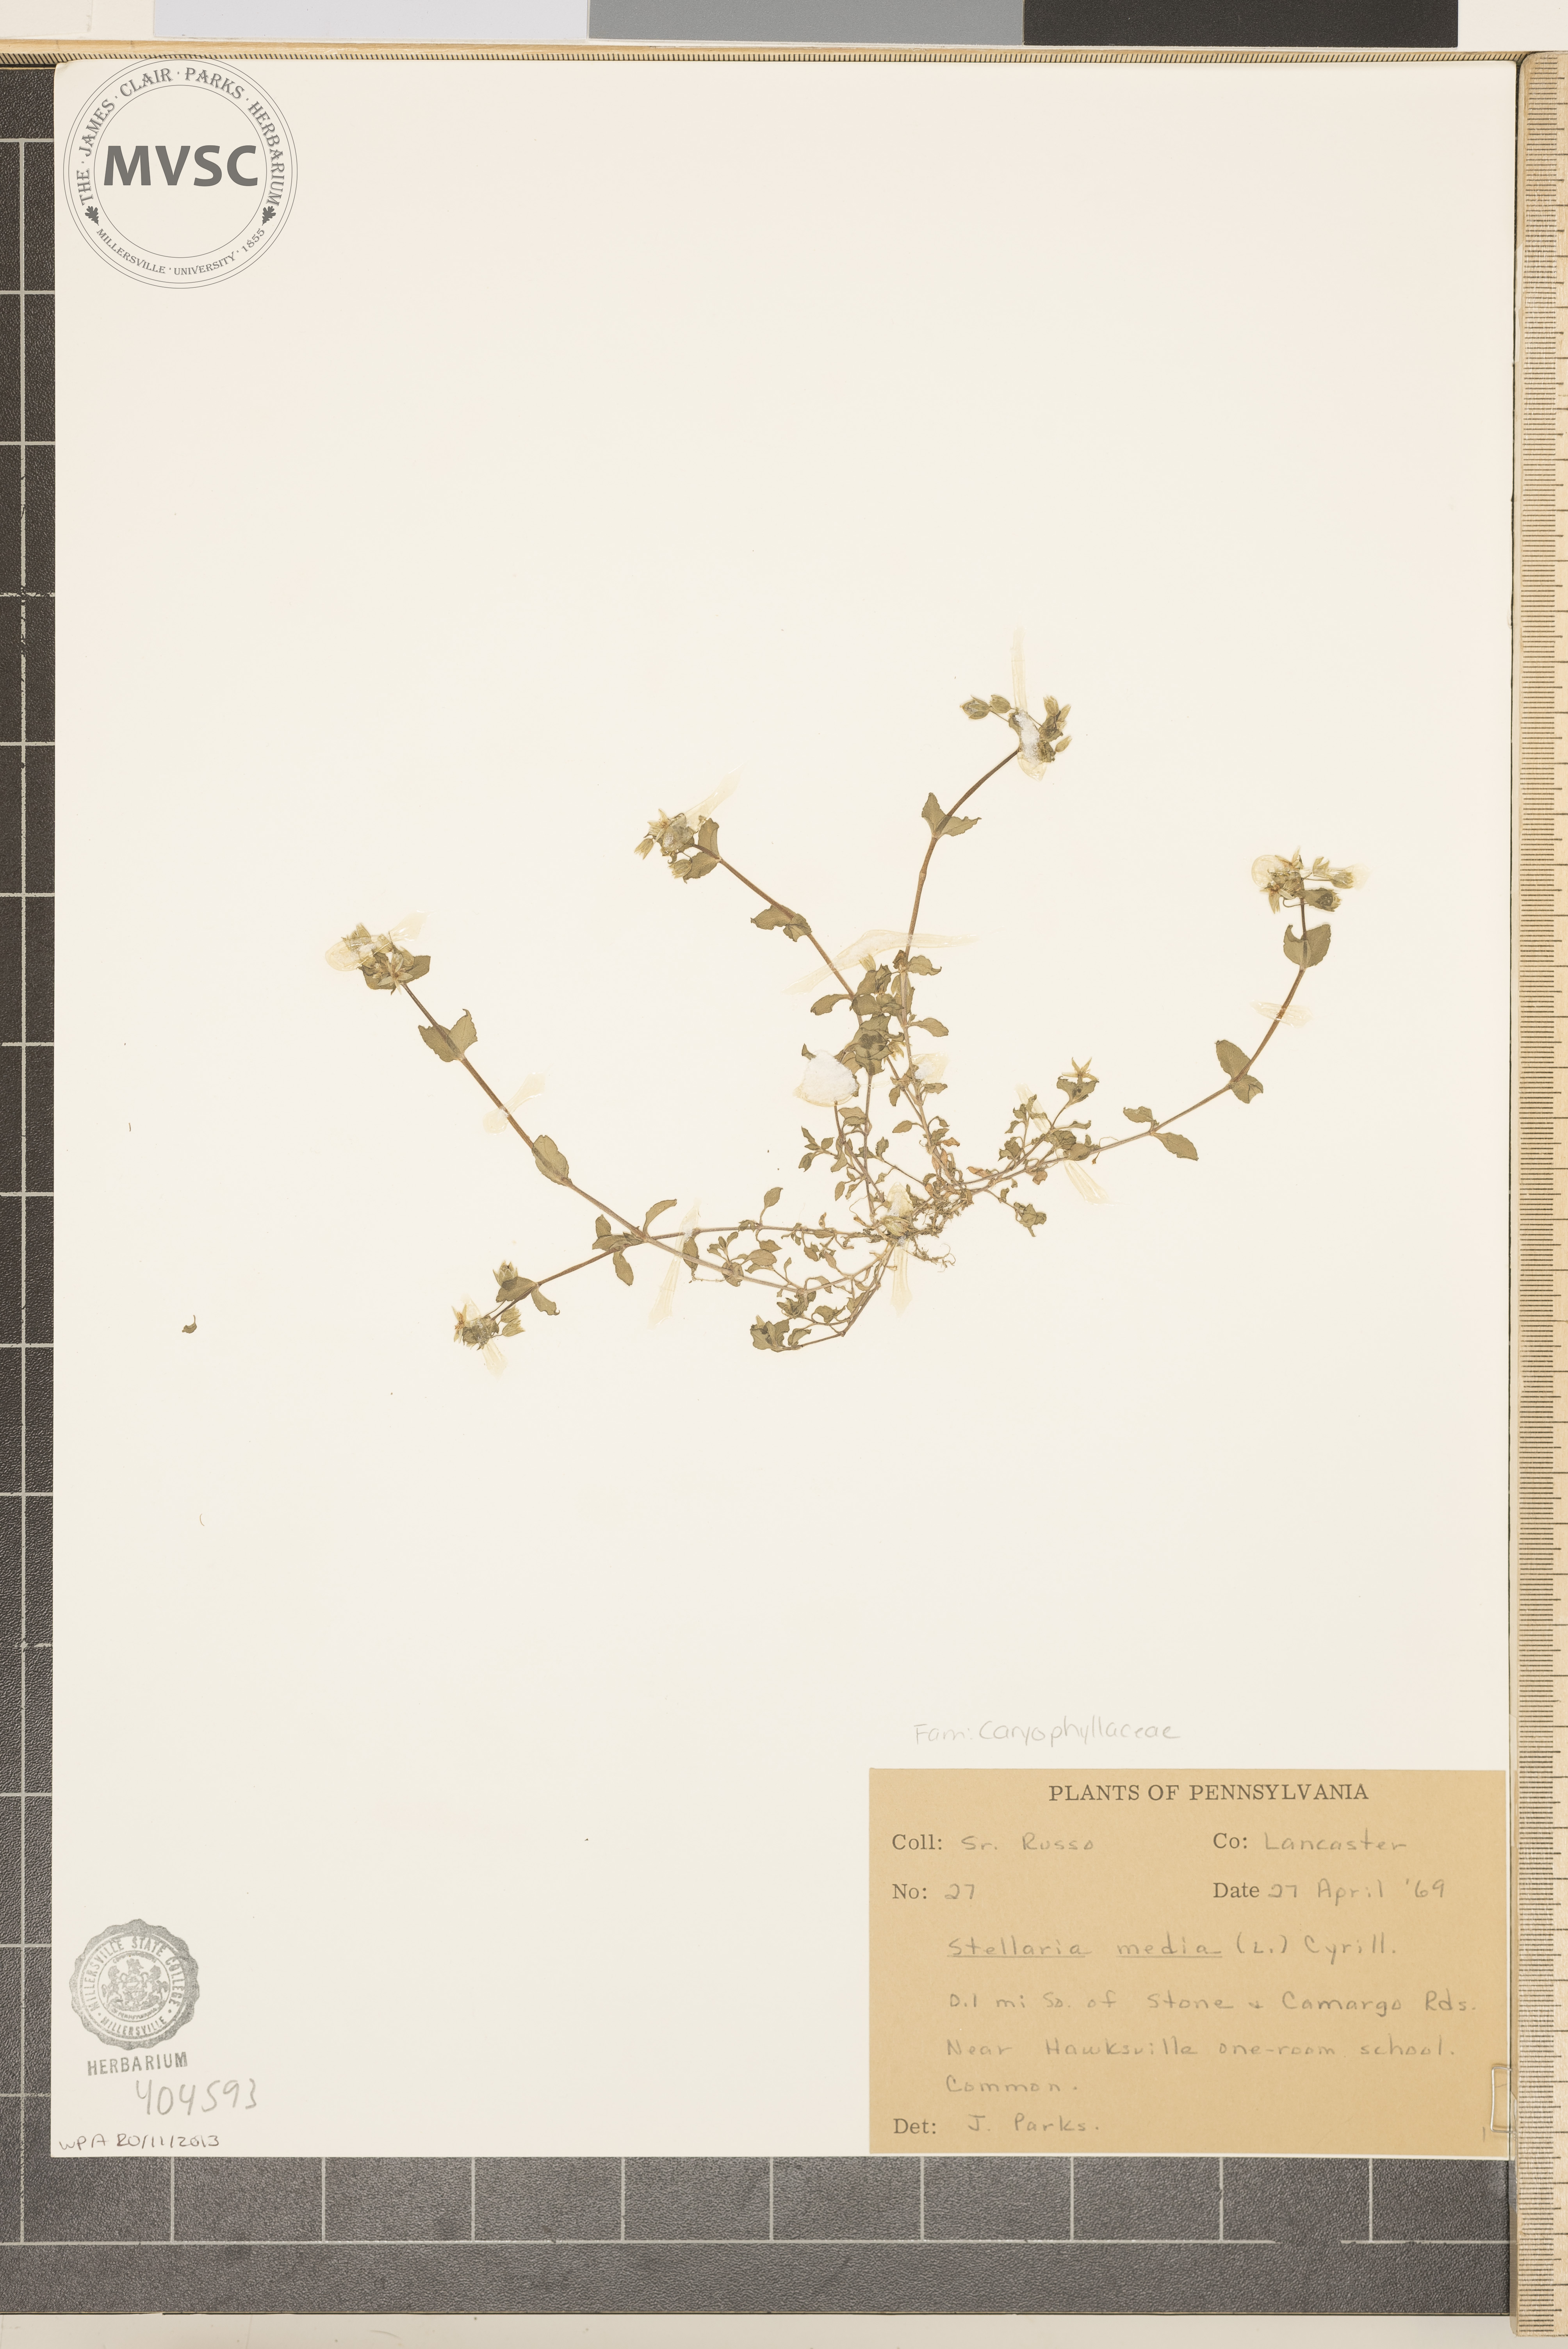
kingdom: Plantae
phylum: Tracheophyta
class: Magnoliopsida
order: Caryophyllales
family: Caryophyllaceae
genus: Stellaria
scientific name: Stellaria media
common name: Common chickweed
